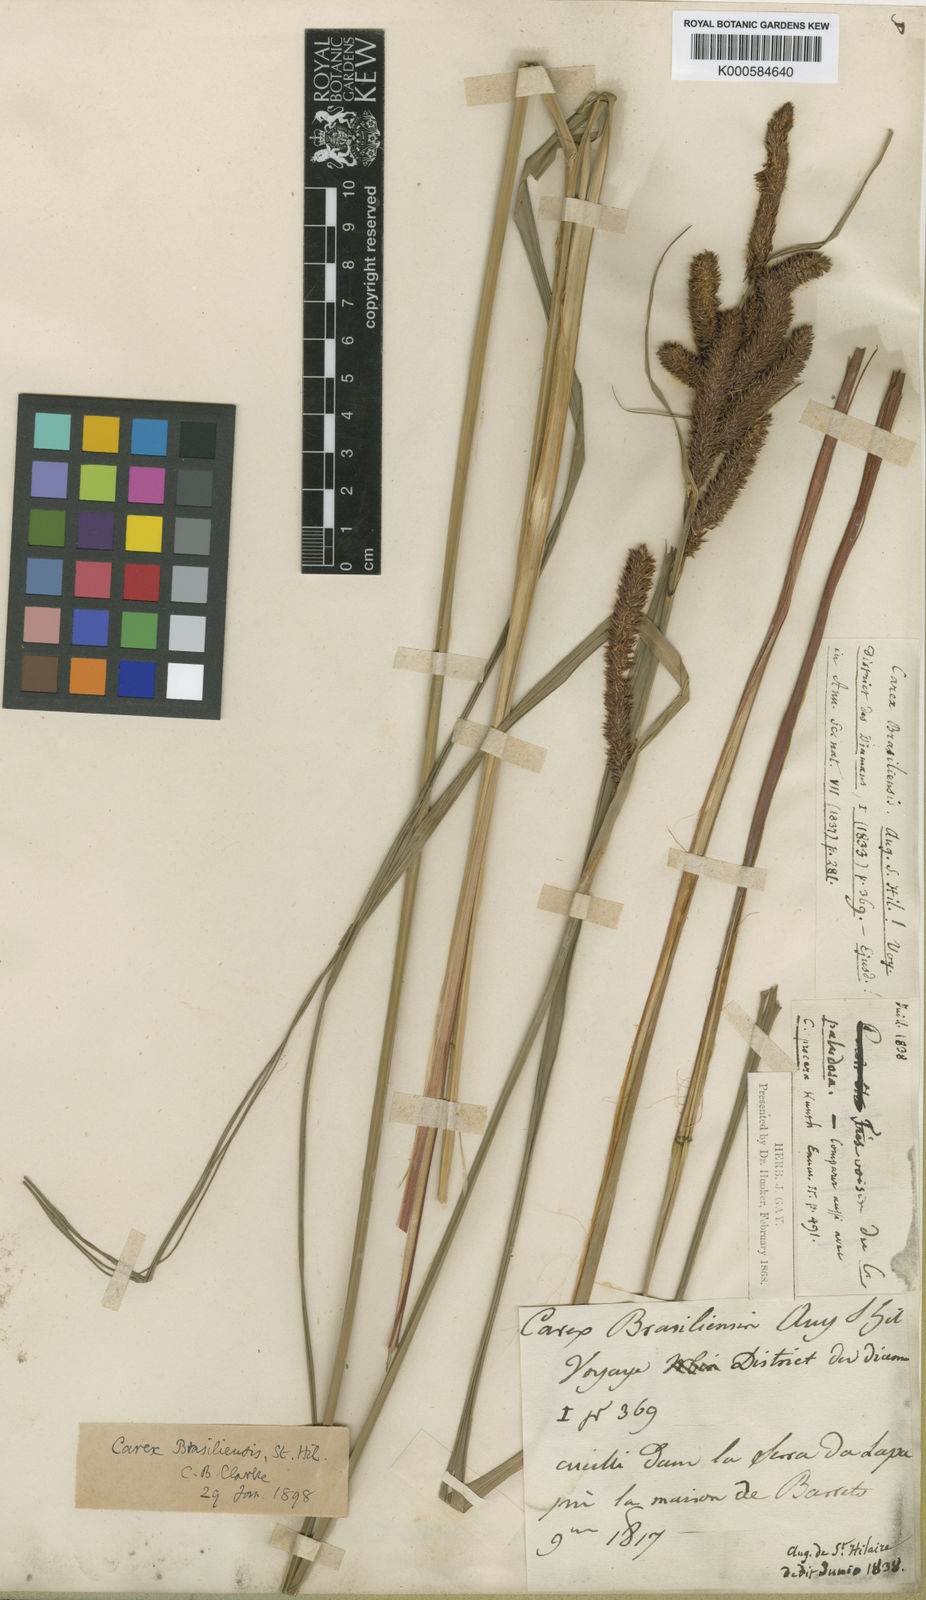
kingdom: Plantae
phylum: Tracheophyta
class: Liliopsida
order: Poales
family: Cyperaceae
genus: Carex
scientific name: Carex brasiliensis
